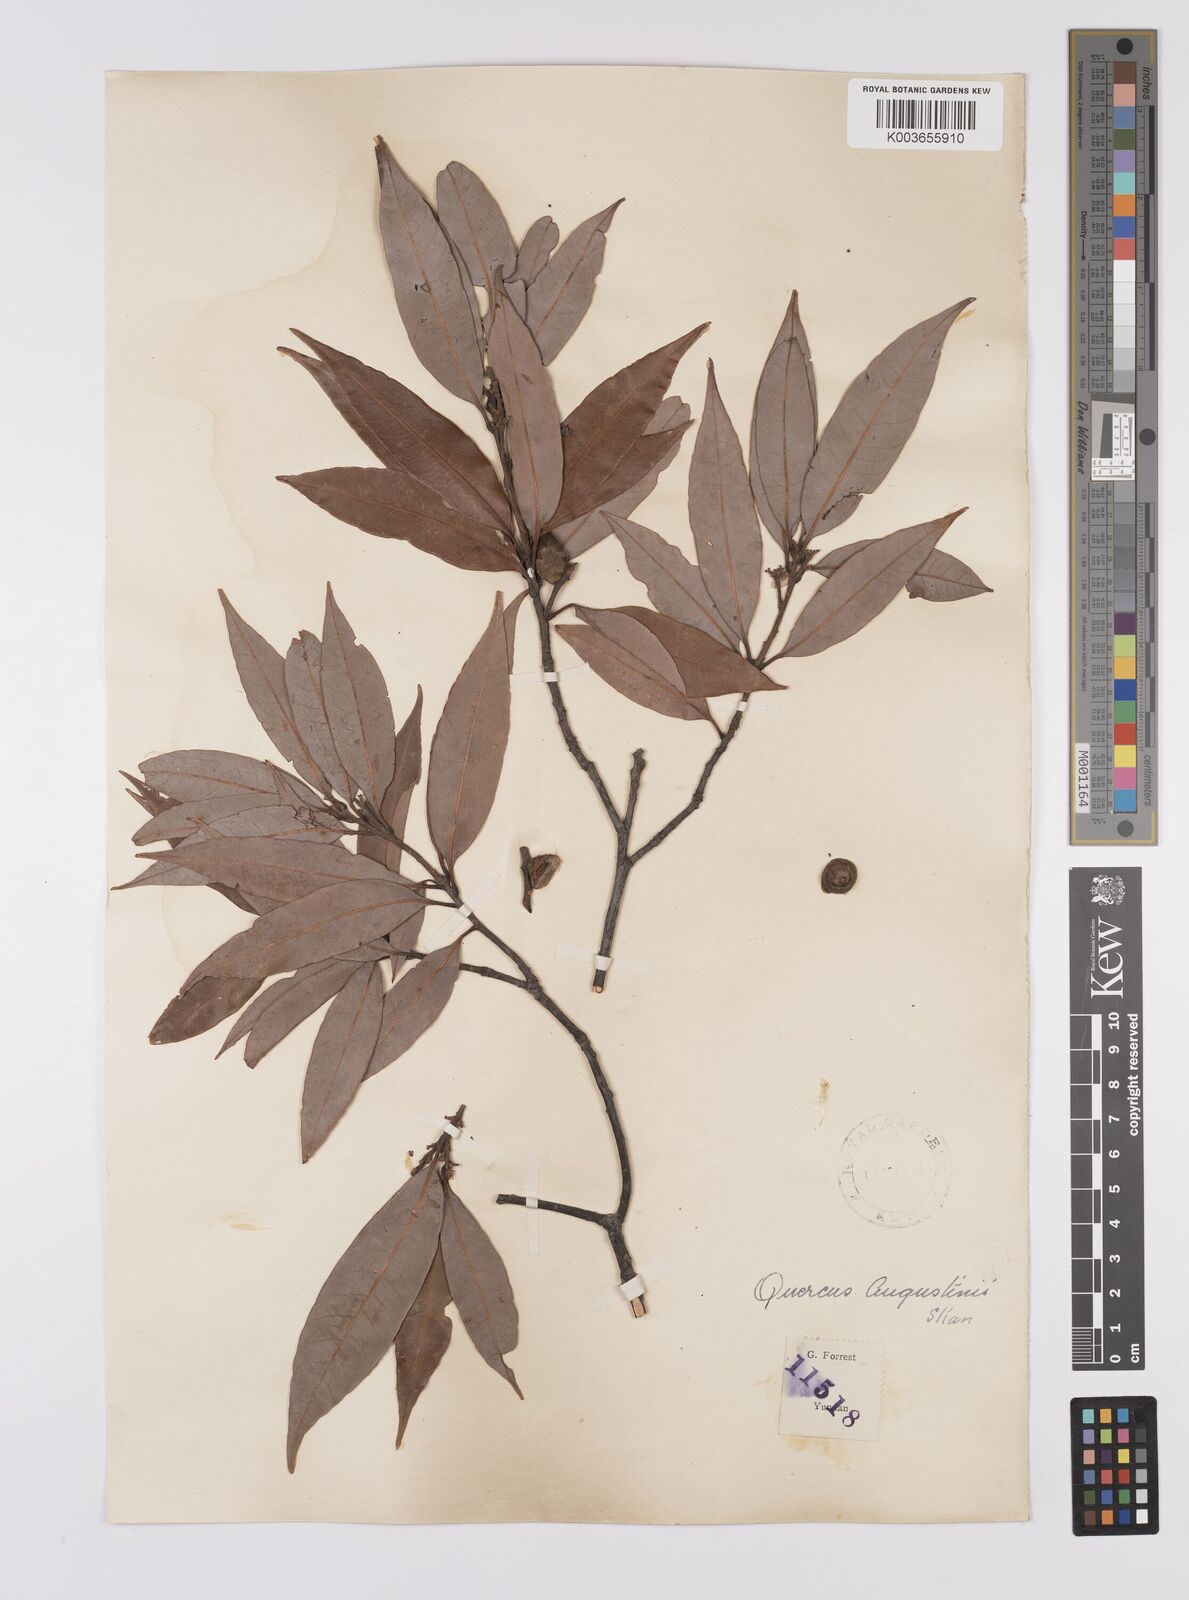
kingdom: Plantae
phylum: Tracheophyta
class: Magnoliopsida
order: Fagales
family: Fagaceae
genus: Quercus
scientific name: Quercus augustini
